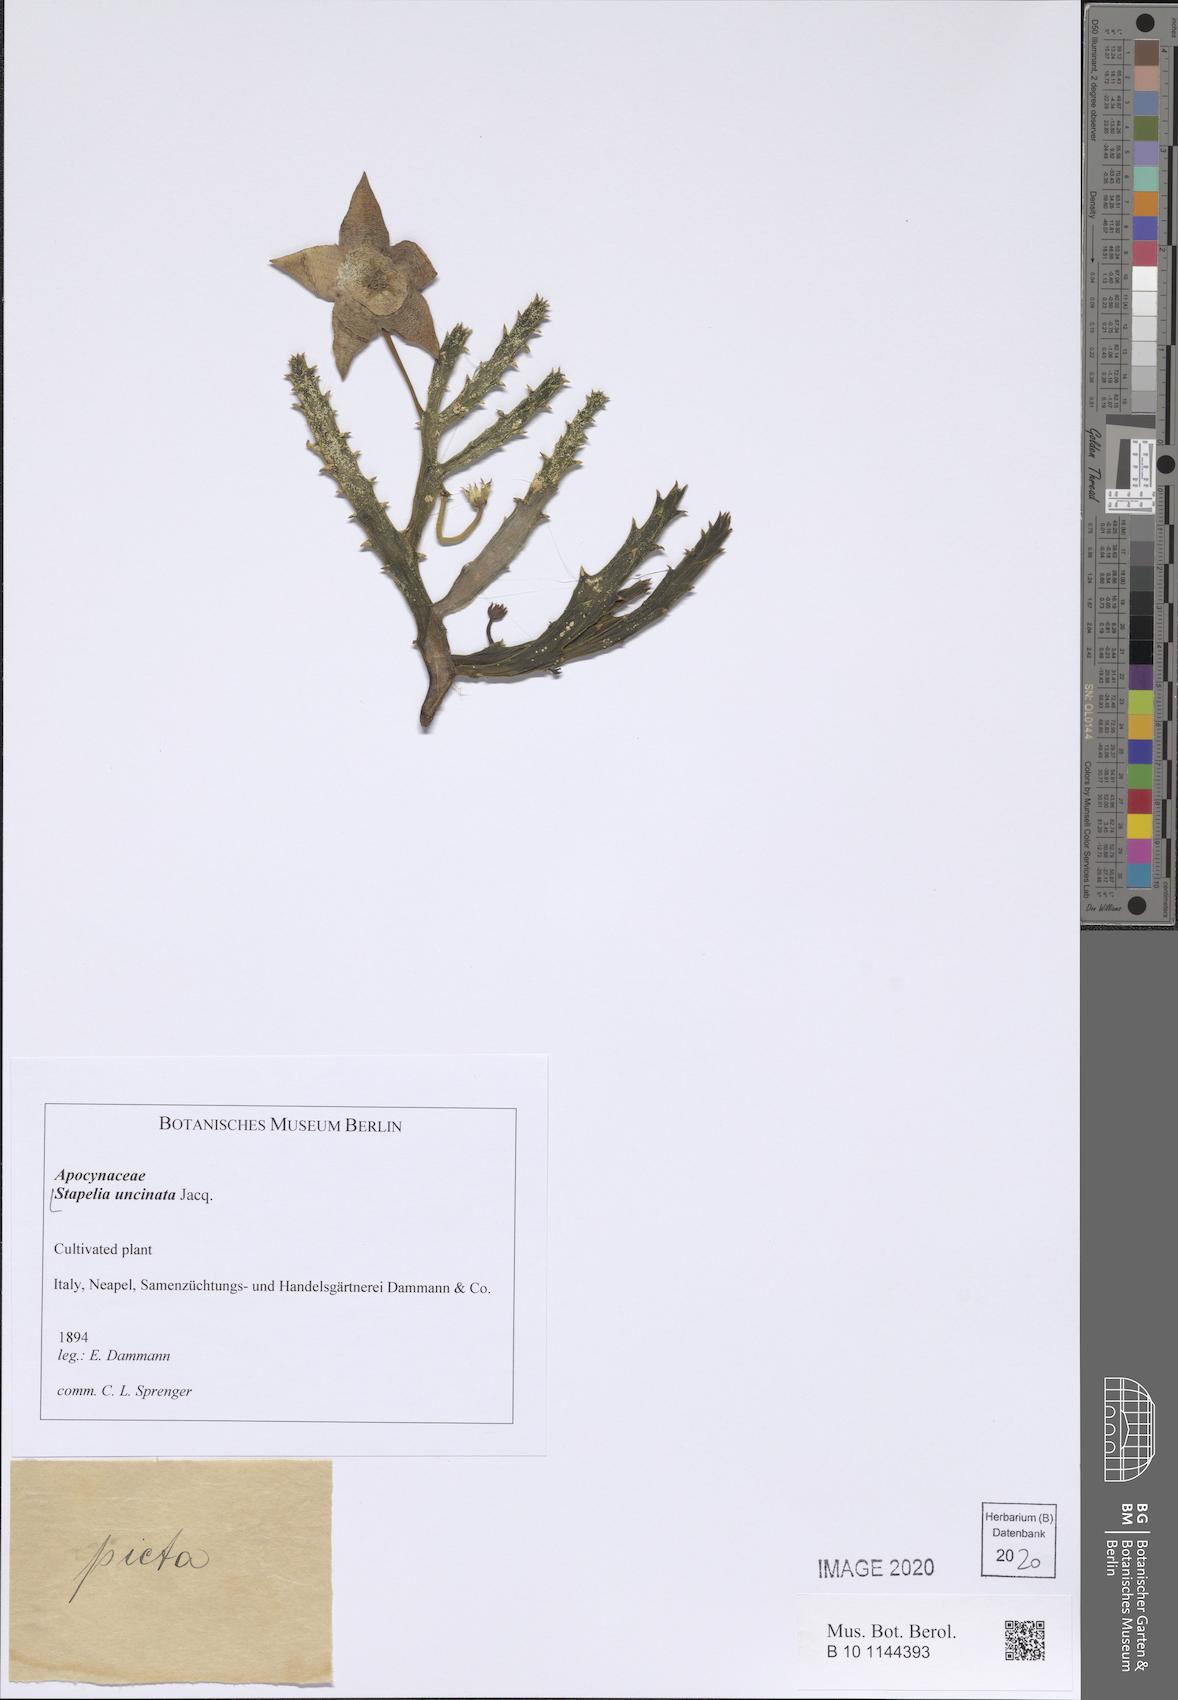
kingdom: Plantae
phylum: Tracheophyta
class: Magnoliopsida
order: Gentianales
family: Apocynaceae
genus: Stapelia
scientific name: Stapelia uncinata
